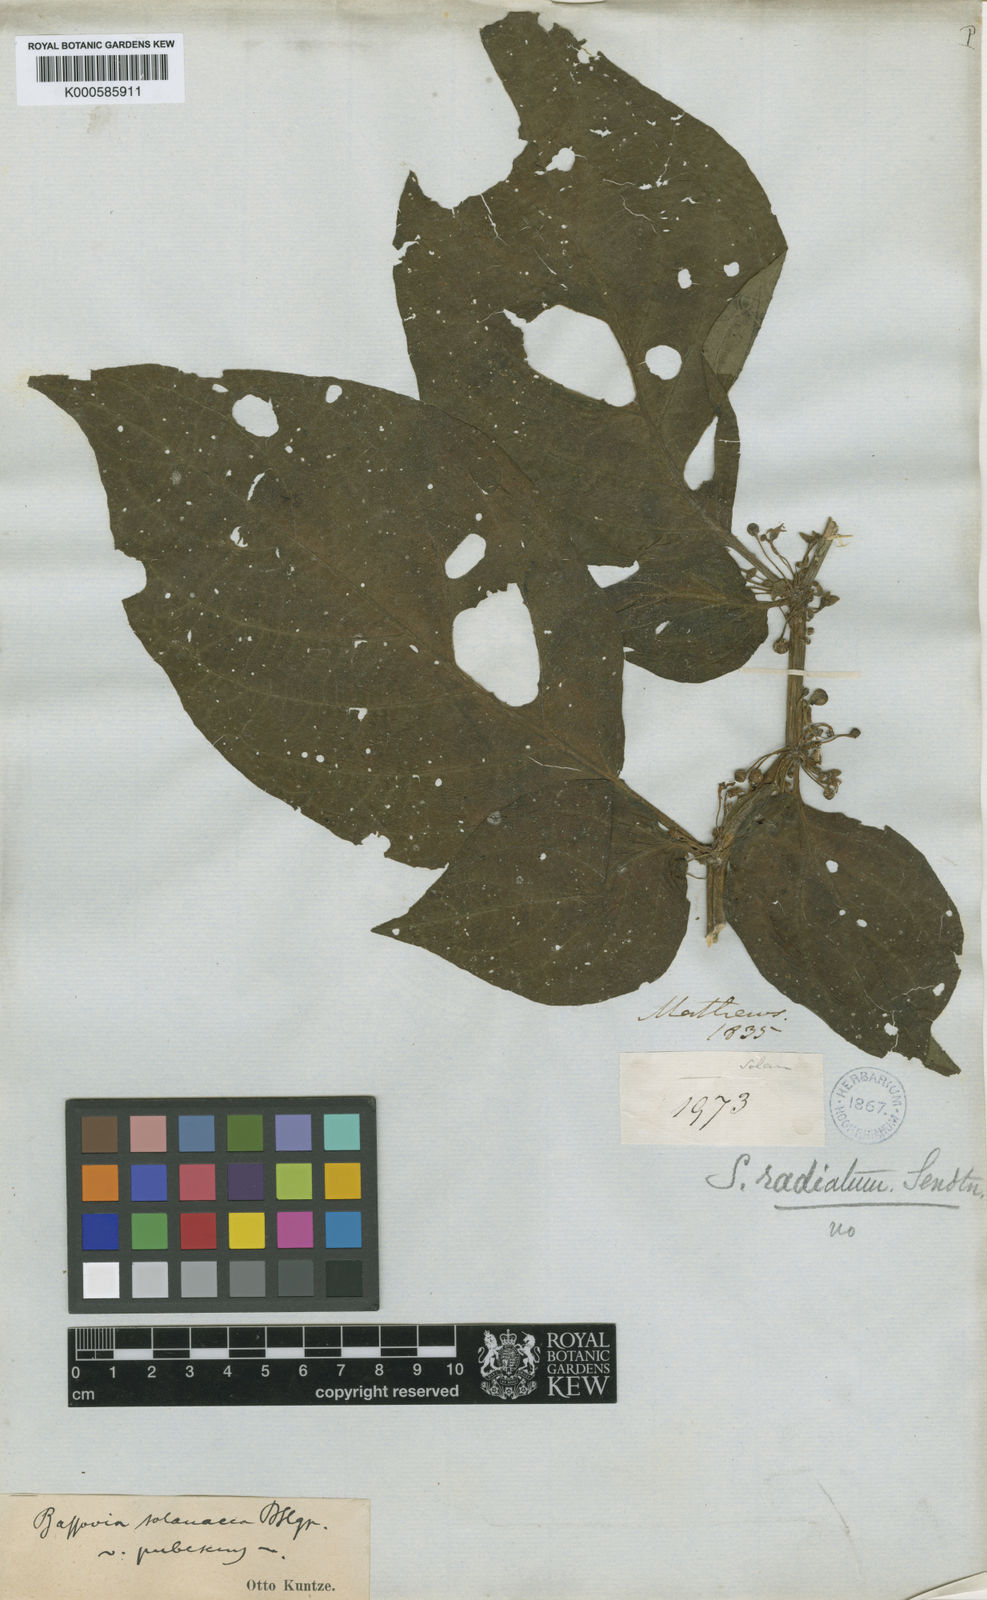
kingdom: Plantae
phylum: Tracheophyta
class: Magnoliopsida
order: Solanales
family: Solanaceae
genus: Witheringia
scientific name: Witheringia
